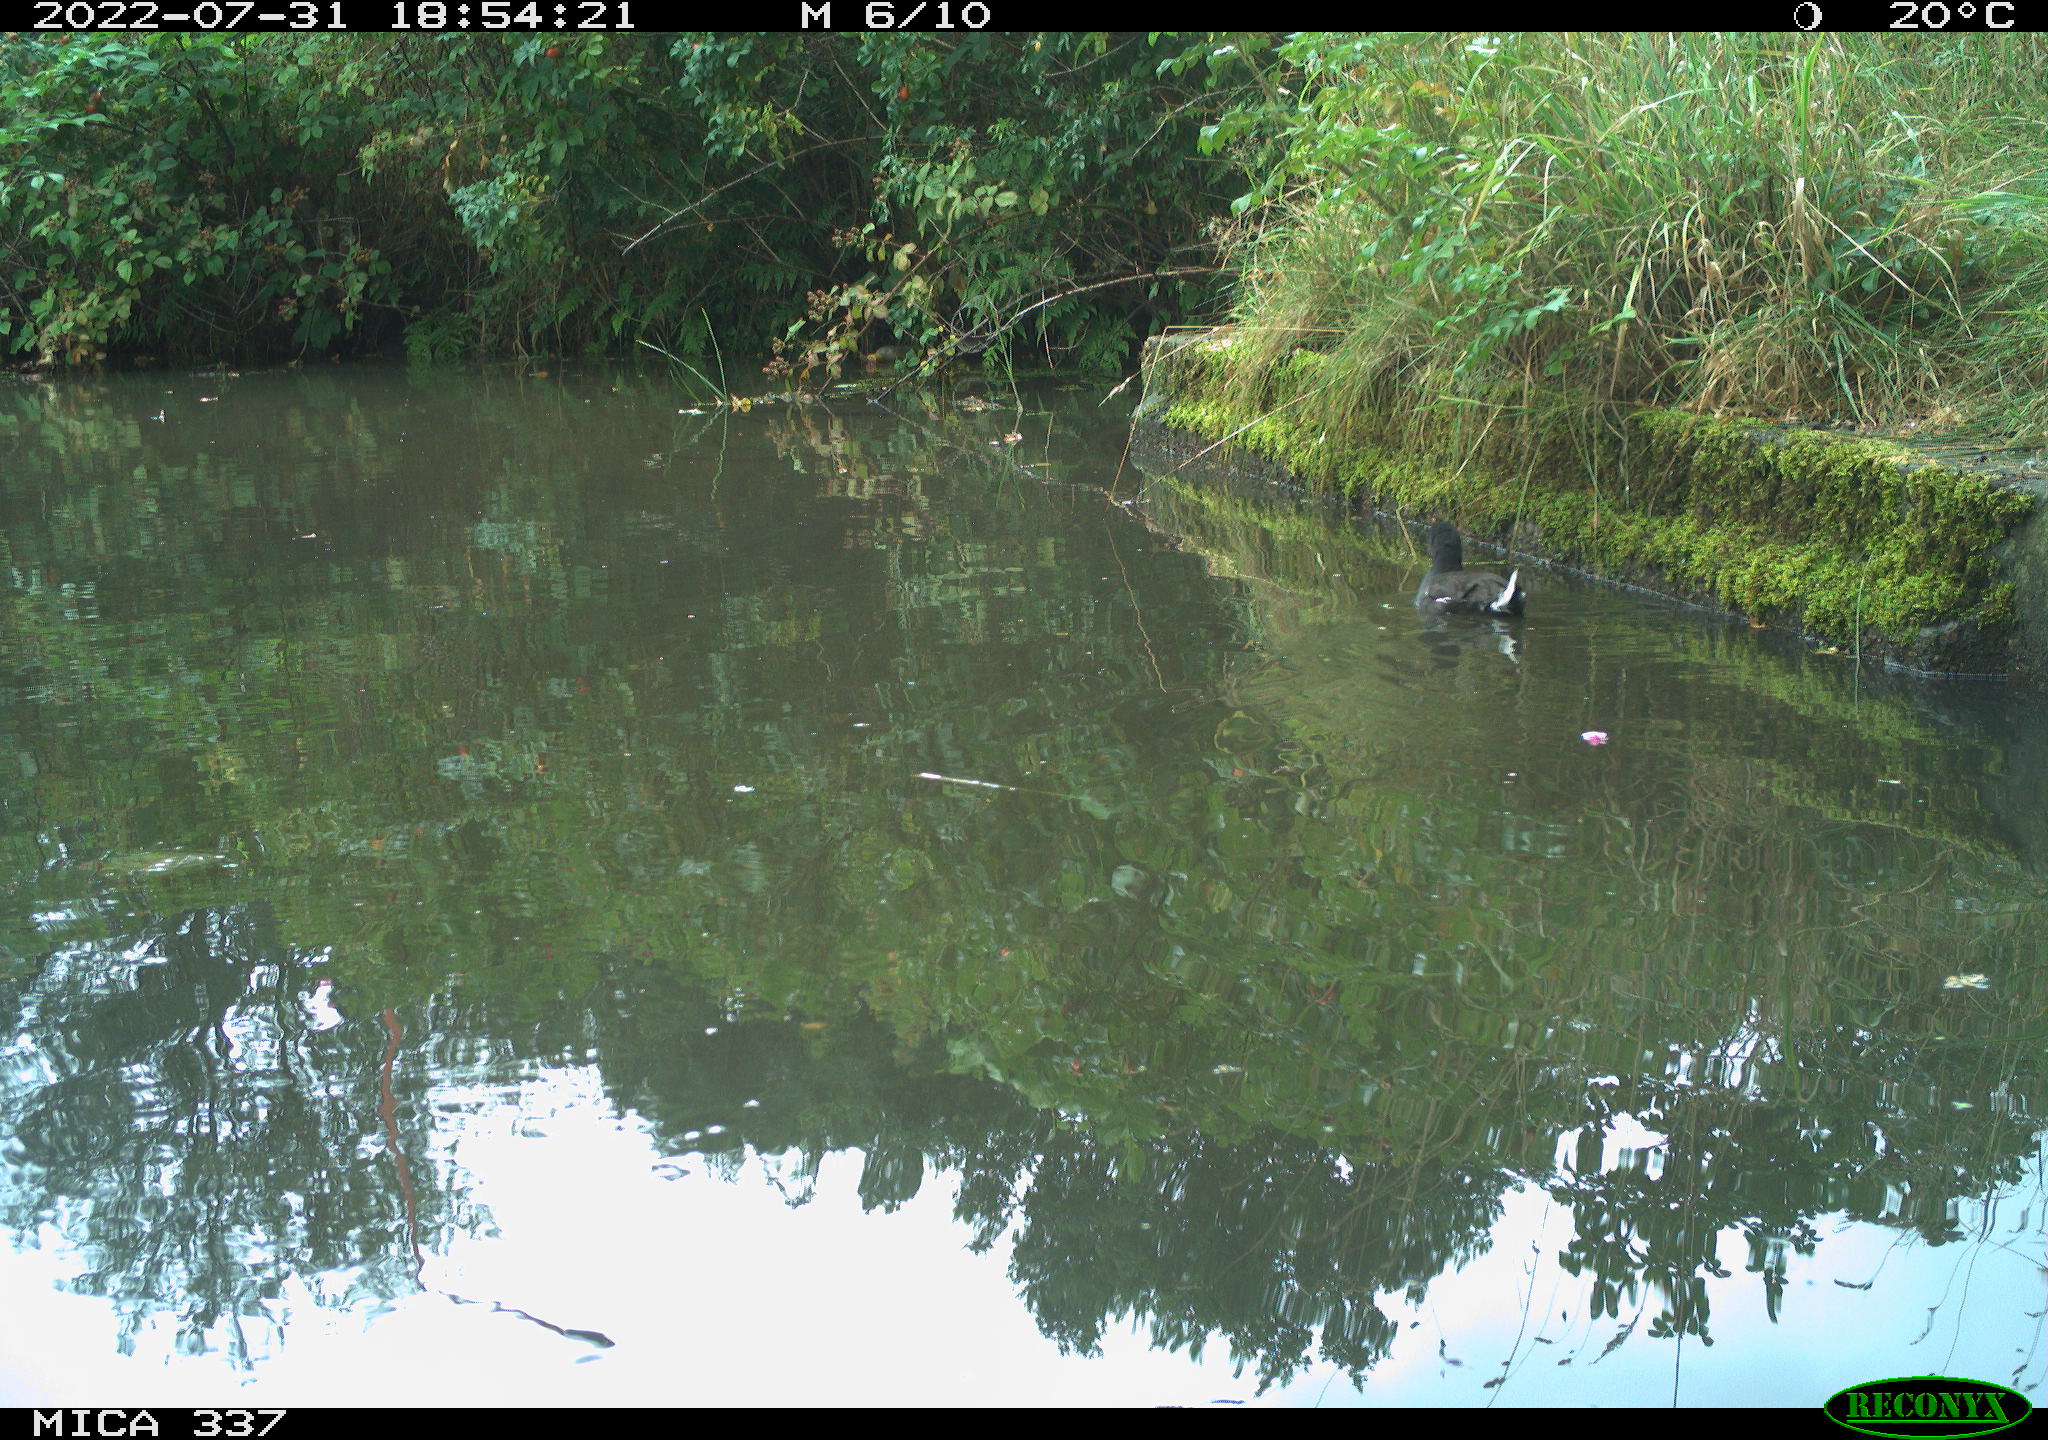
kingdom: Animalia
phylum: Chordata
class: Aves
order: Gruiformes
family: Rallidae
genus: Gallinula
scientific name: Gallinula chloropus
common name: Common moorhen
